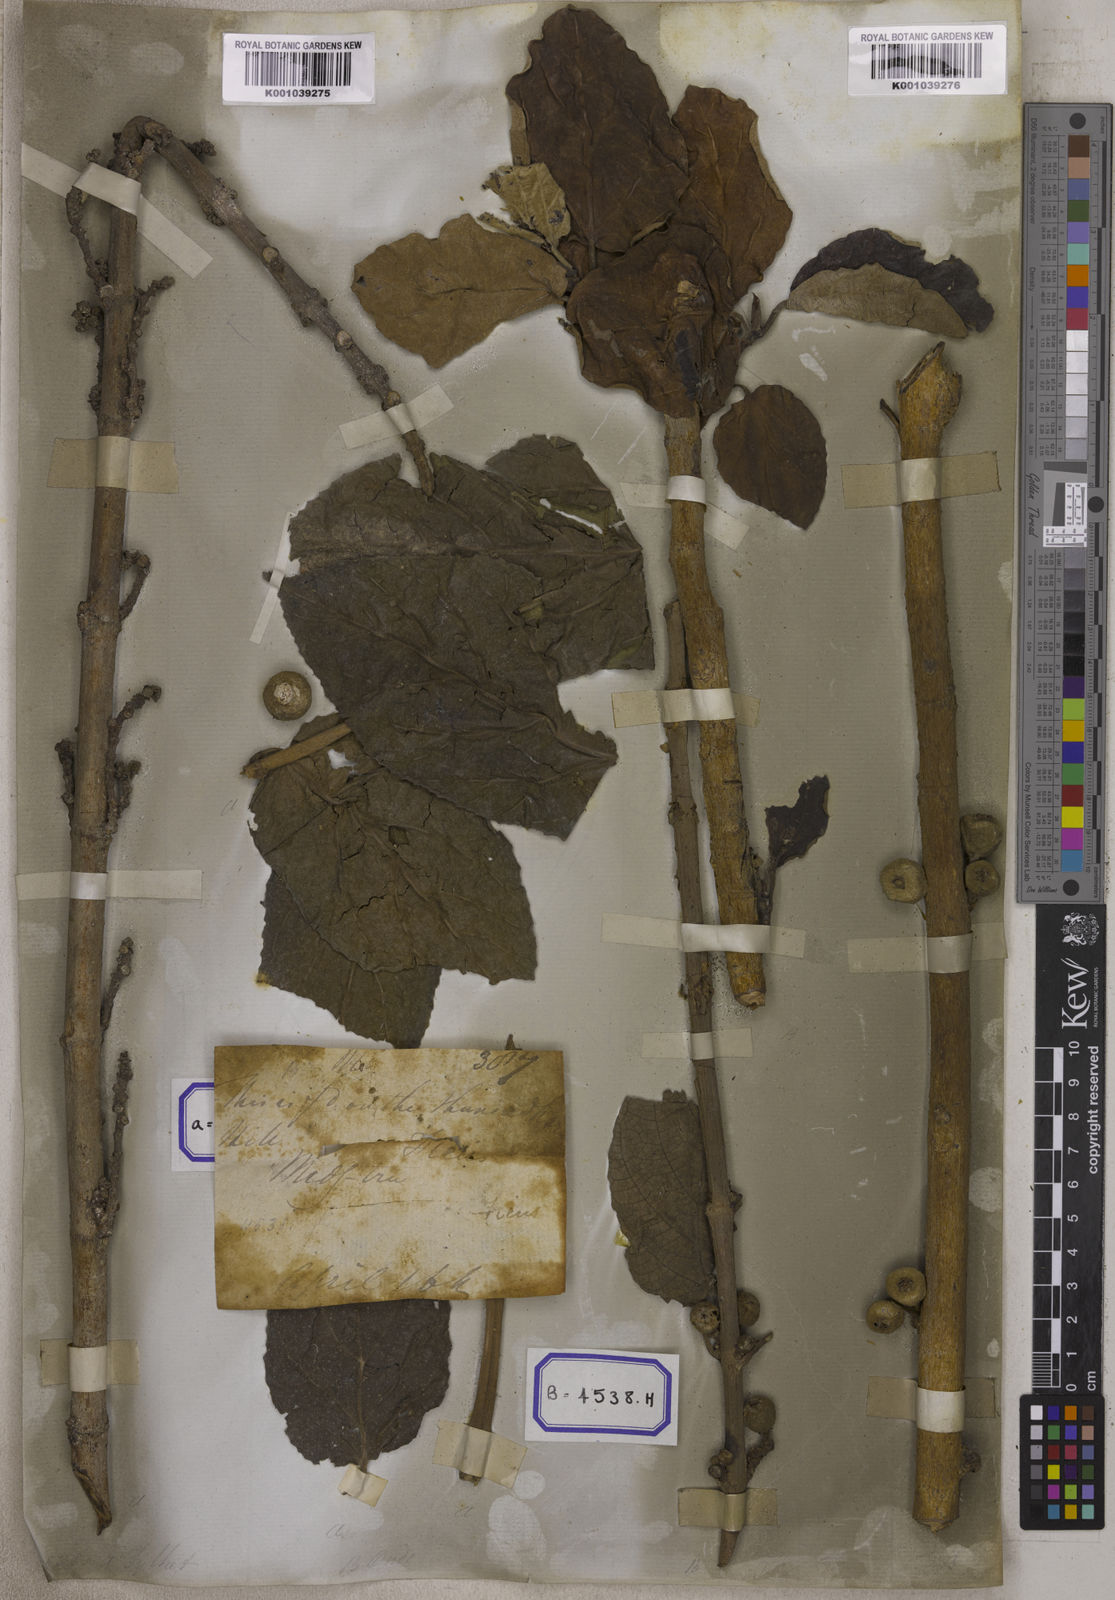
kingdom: Plantae
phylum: Tracheophyta
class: Magnoliopsida
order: Rosales
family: Moraceae
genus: Ficus
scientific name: Ficus hispida
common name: Hairy fig
